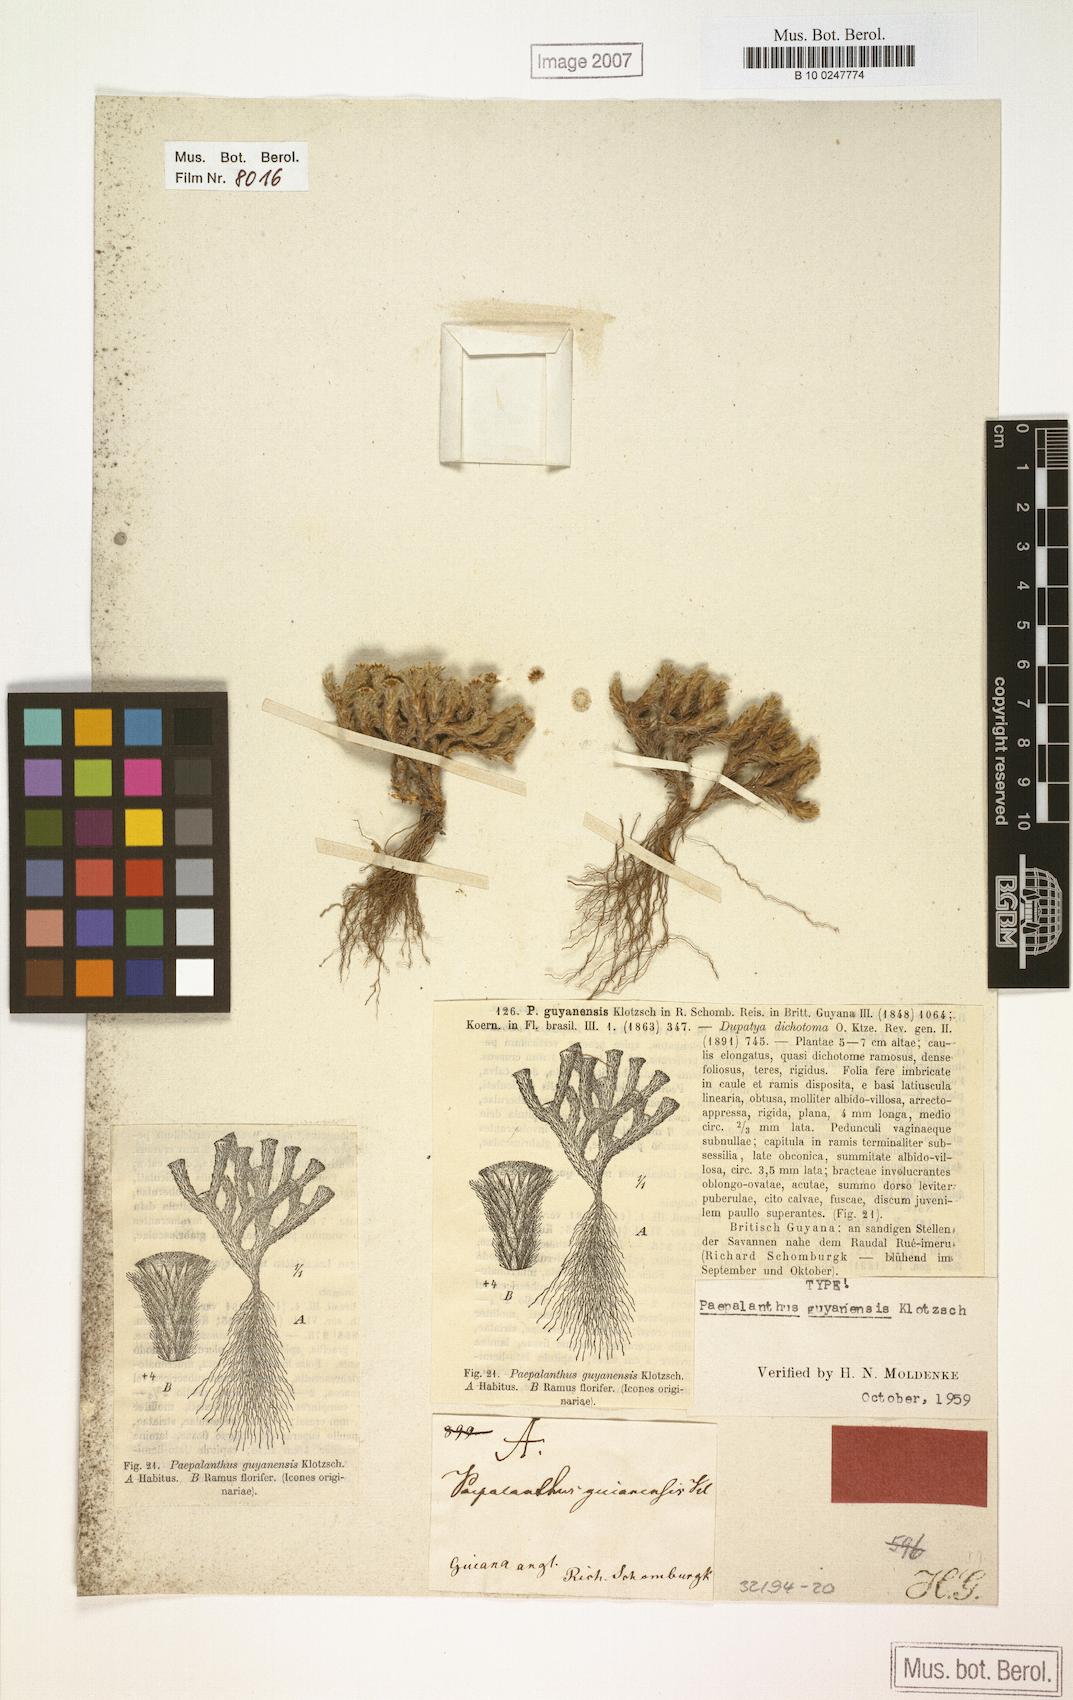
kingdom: Plantae
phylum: Tracheophyta
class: Liliopsida
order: Poales
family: Eriocaulaceae
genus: Paepalanthus
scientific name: Paepalanthus dichotomus
